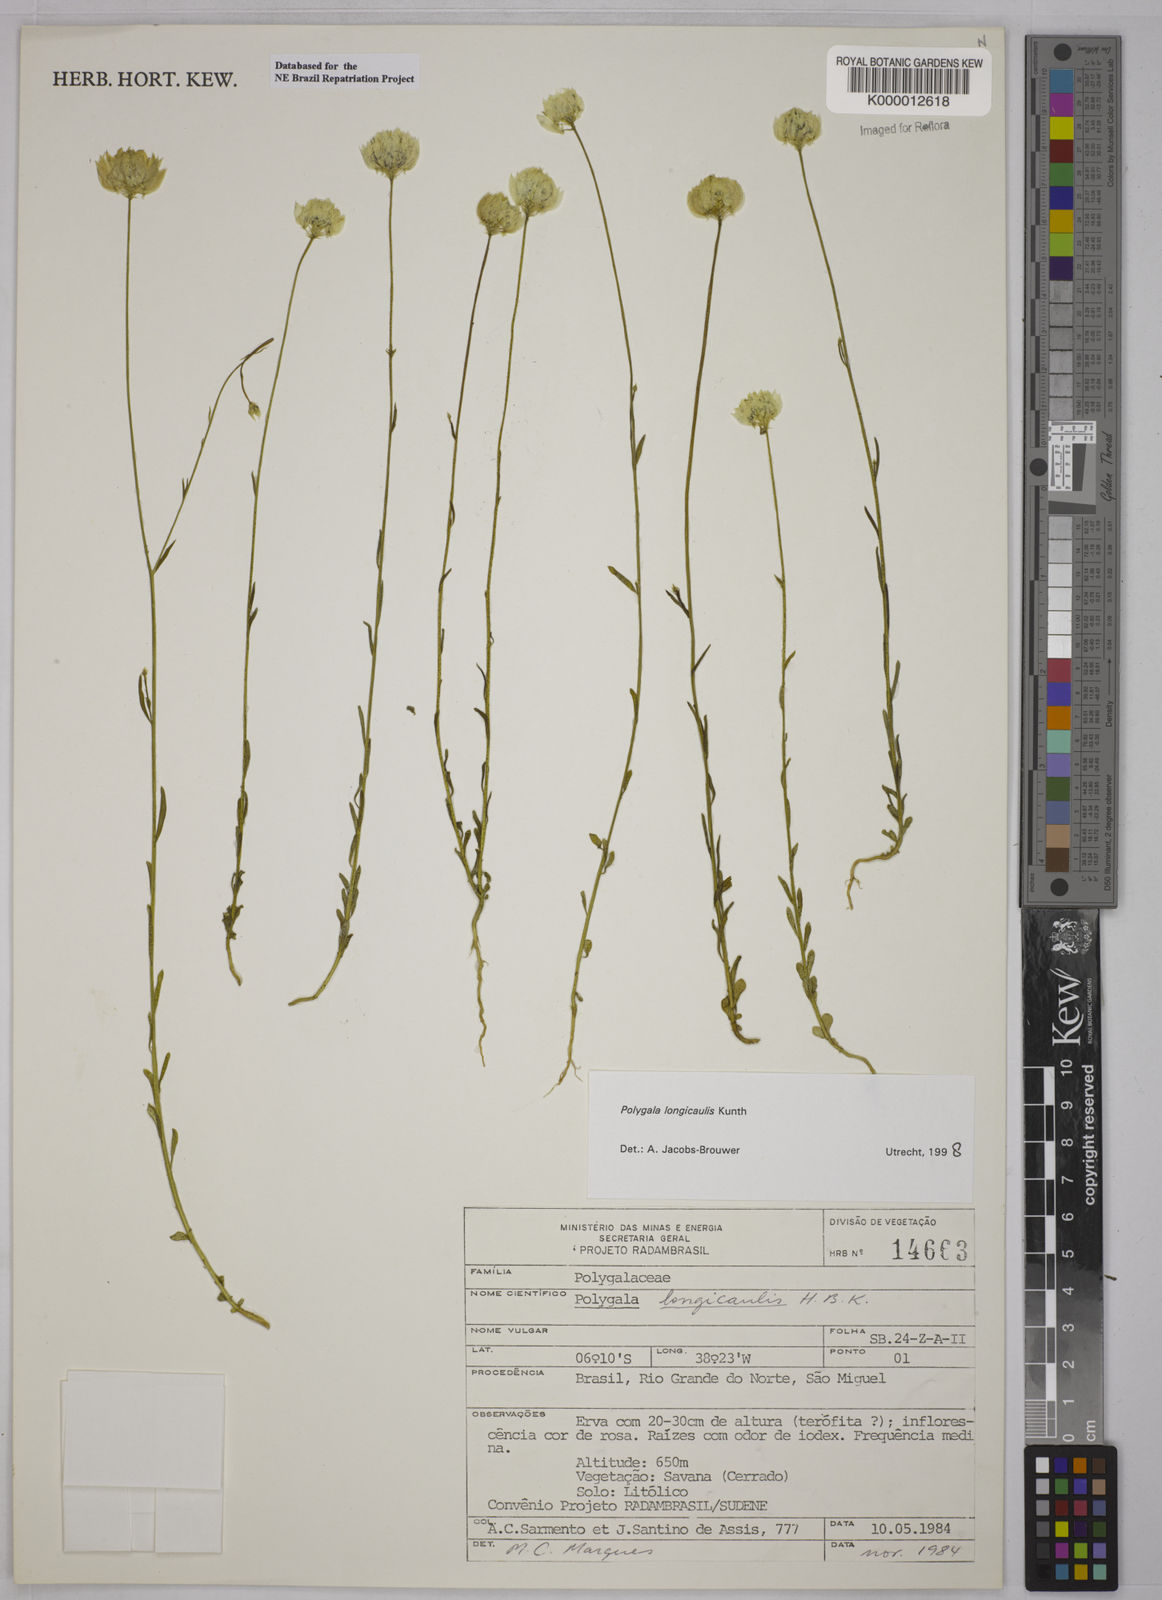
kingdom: Plantae
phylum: Tracheophyta
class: Magnoliopsida
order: Fabales
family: Polygalaceae
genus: Polygala
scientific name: Polygala longicaulis
